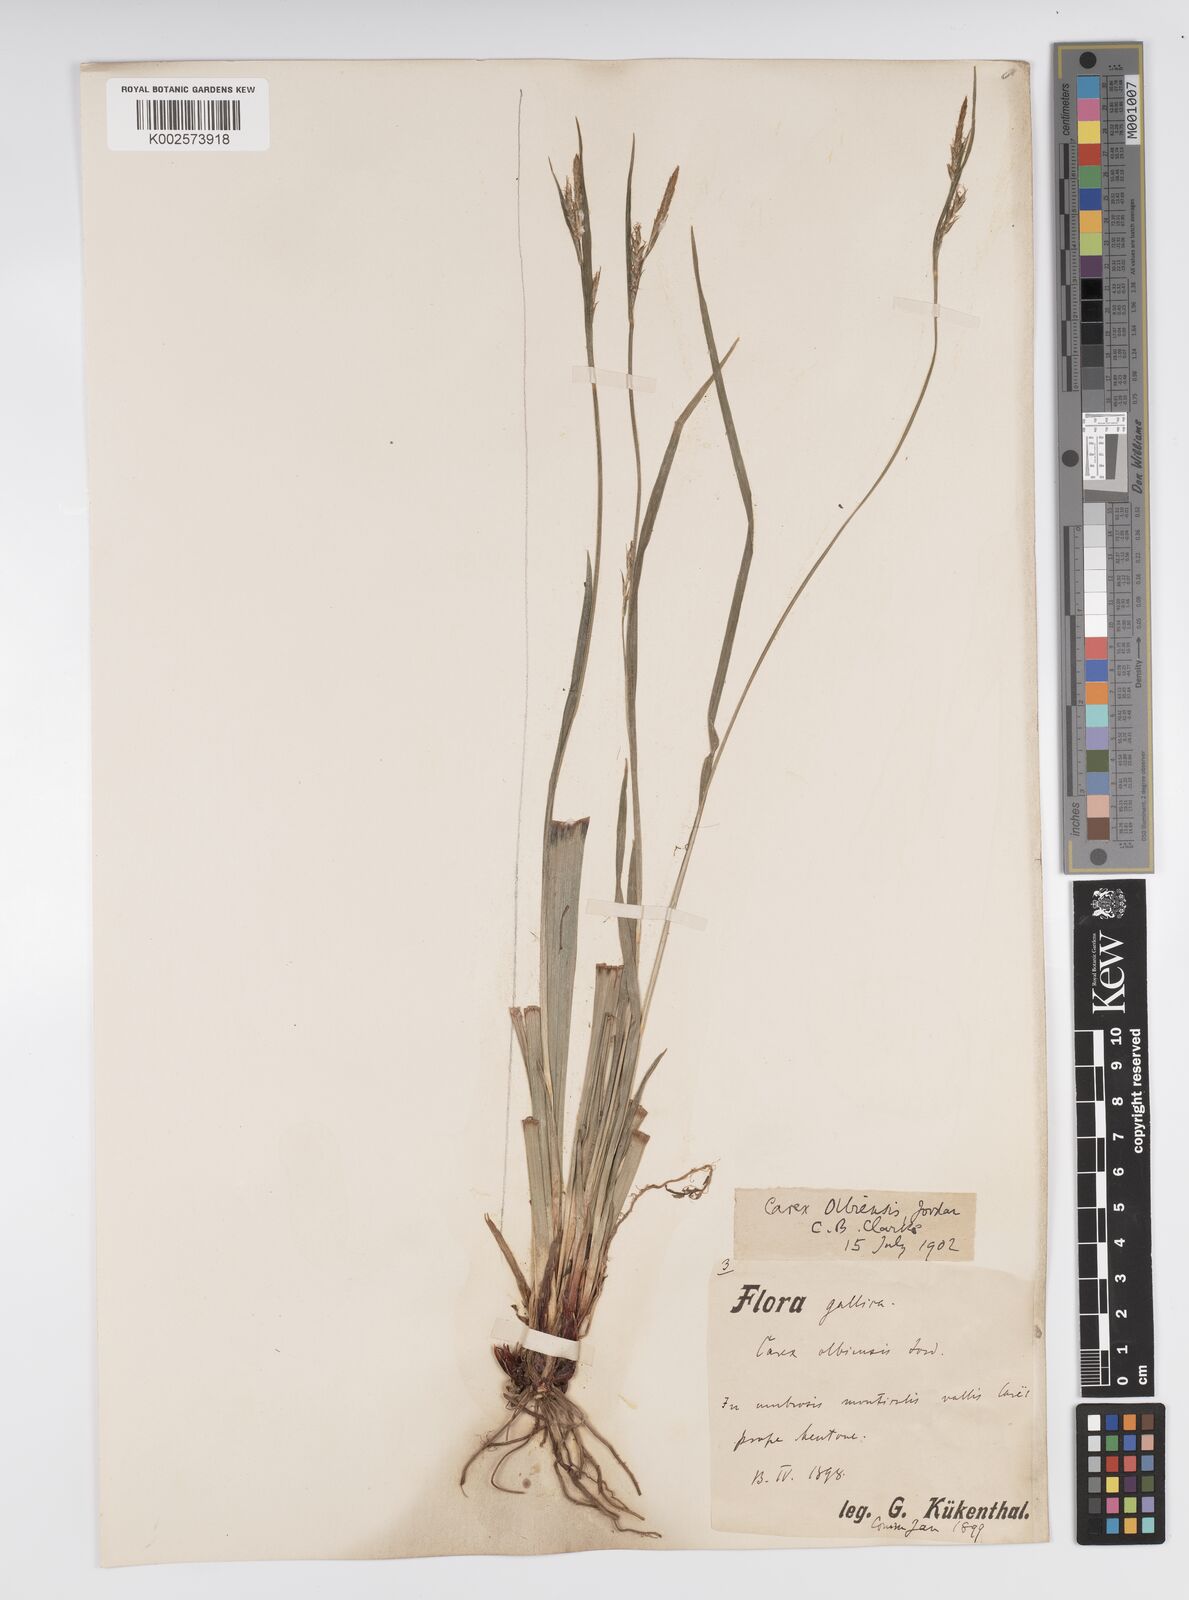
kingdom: Plantae
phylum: Tracheophyta
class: Liliopsida
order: Poales
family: Cyperaceae
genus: Carex
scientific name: Carex olbiensis
